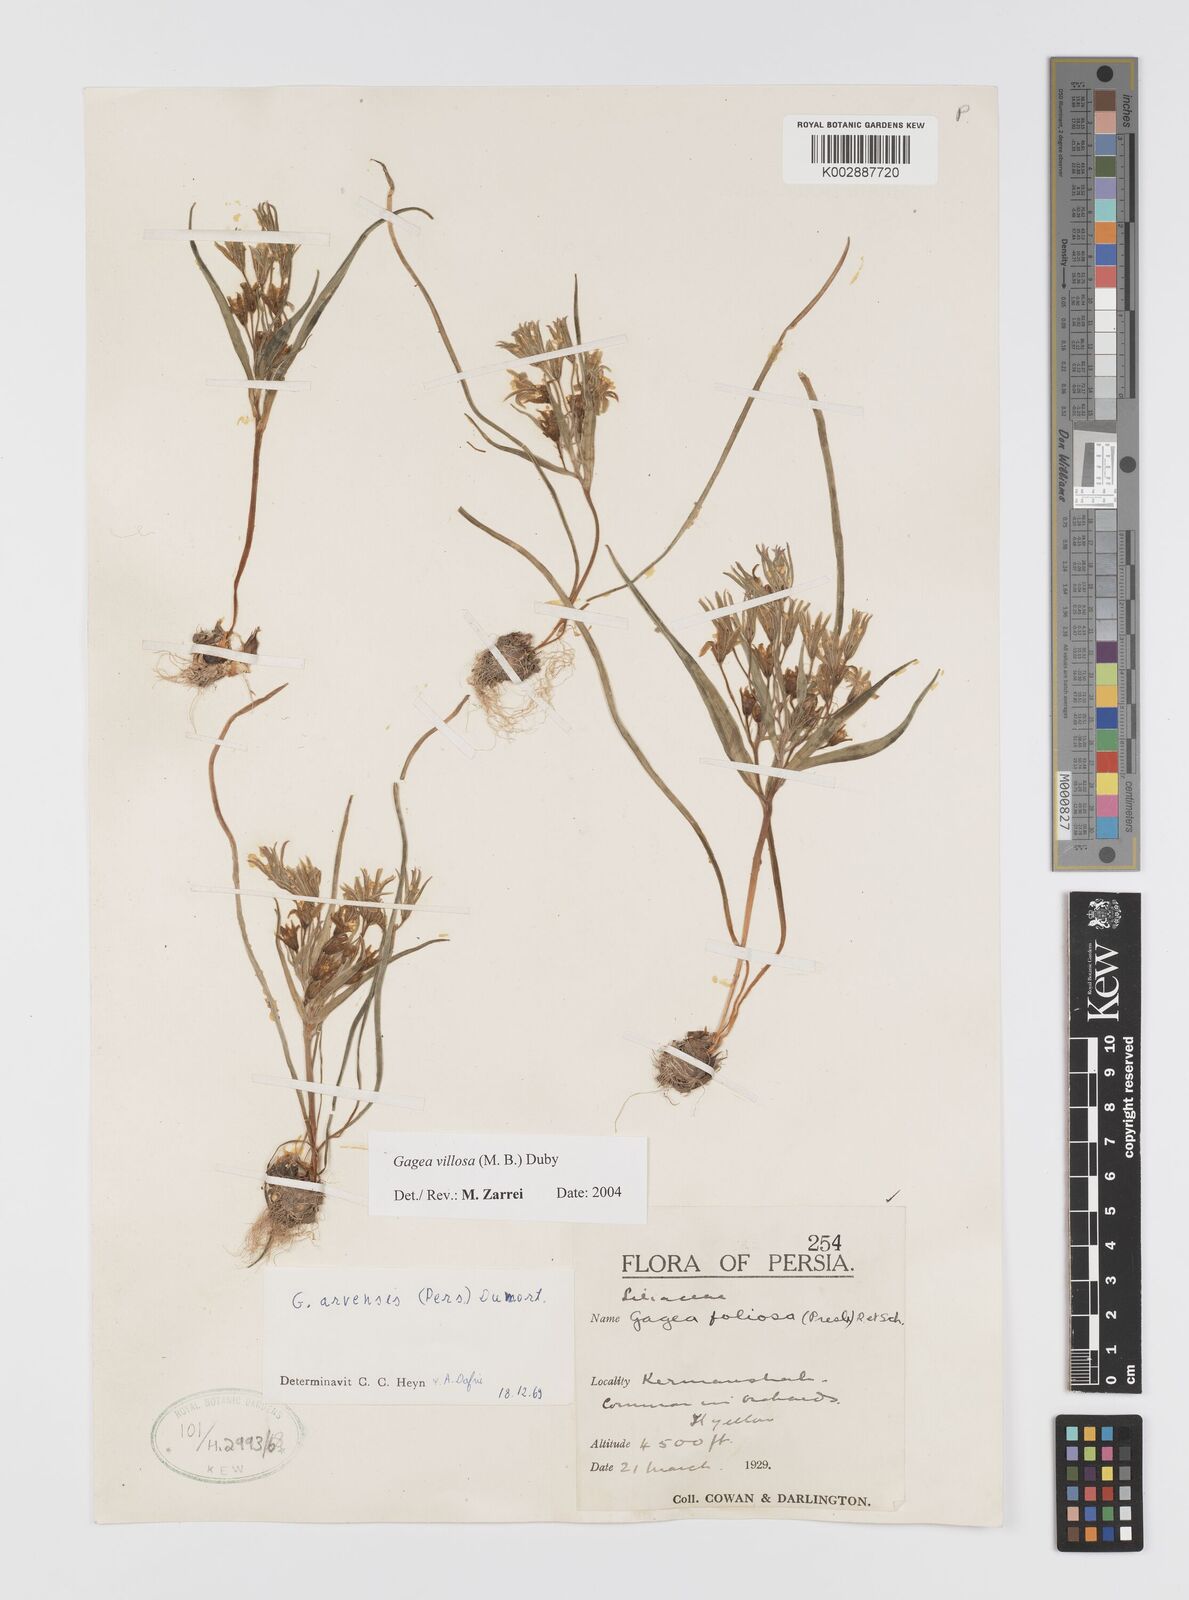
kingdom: Plantae
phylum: Tracheophyta
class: Liliopsida
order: Liliales
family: Liliaceae
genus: Gagea
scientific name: Gagea minima
